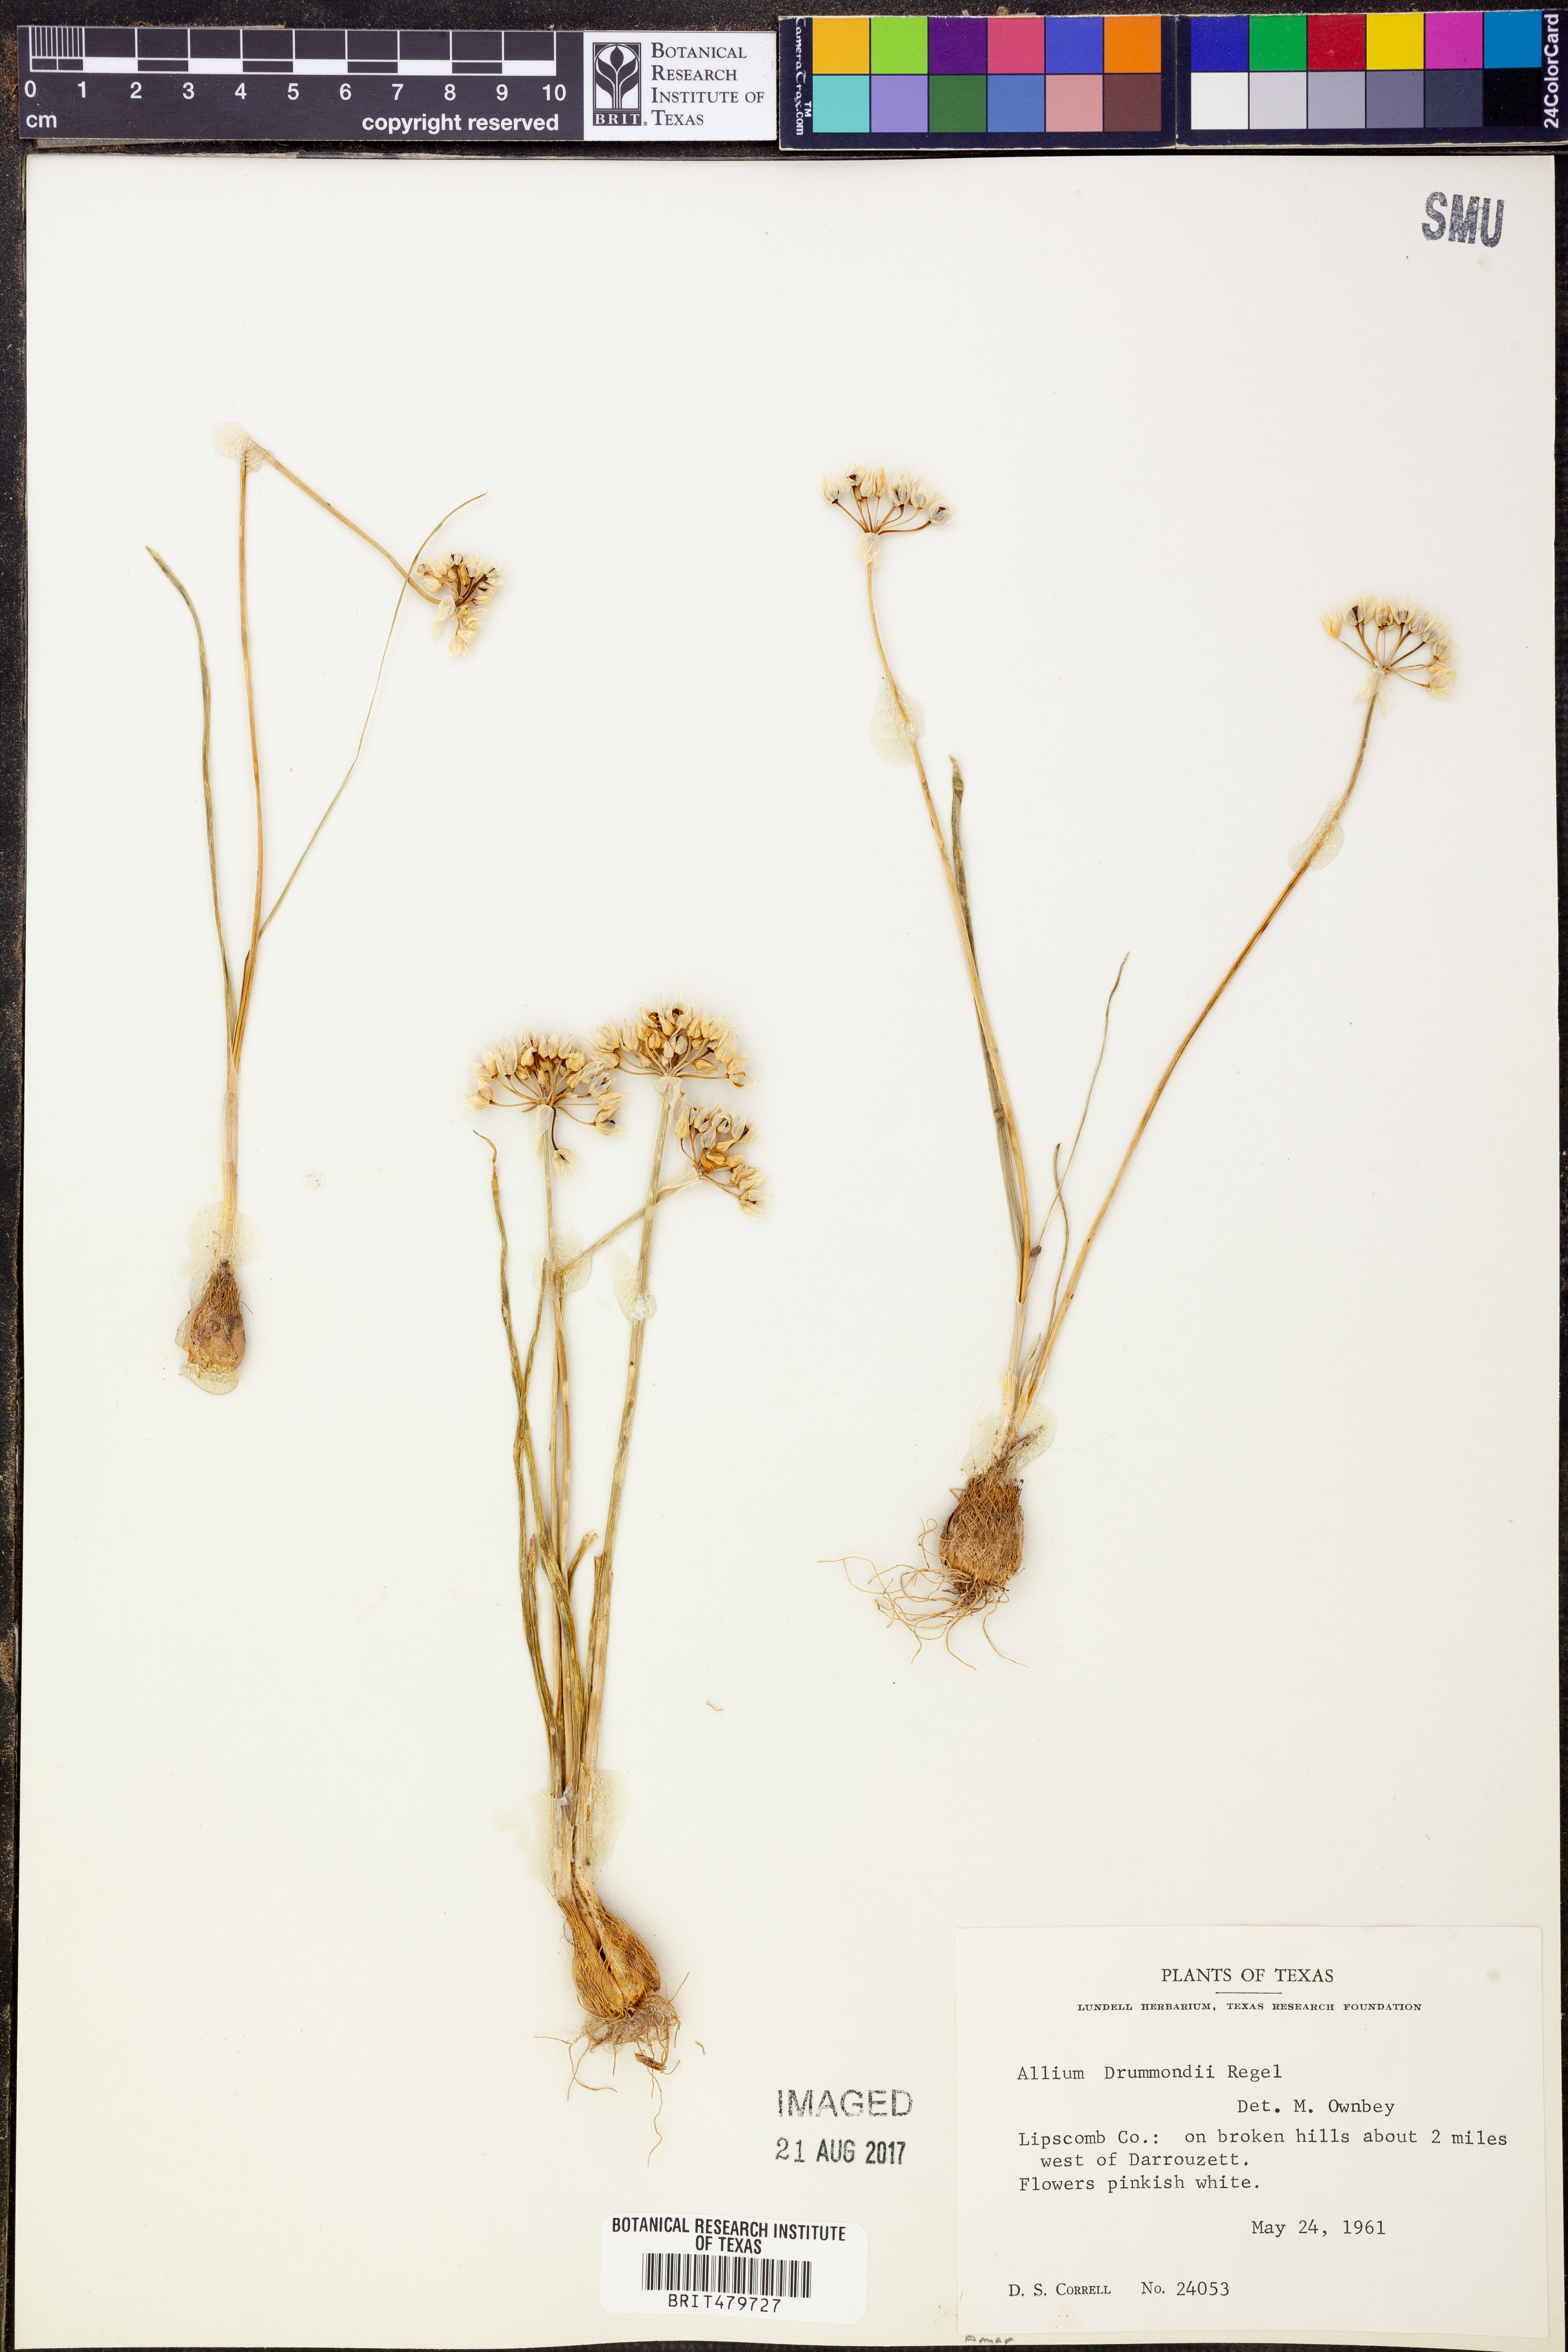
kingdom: Plantae
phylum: Tracheophyta
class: Liliopsida
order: Asparagales
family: Amaryllidaceae
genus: Allium
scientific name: Allium drummondii
